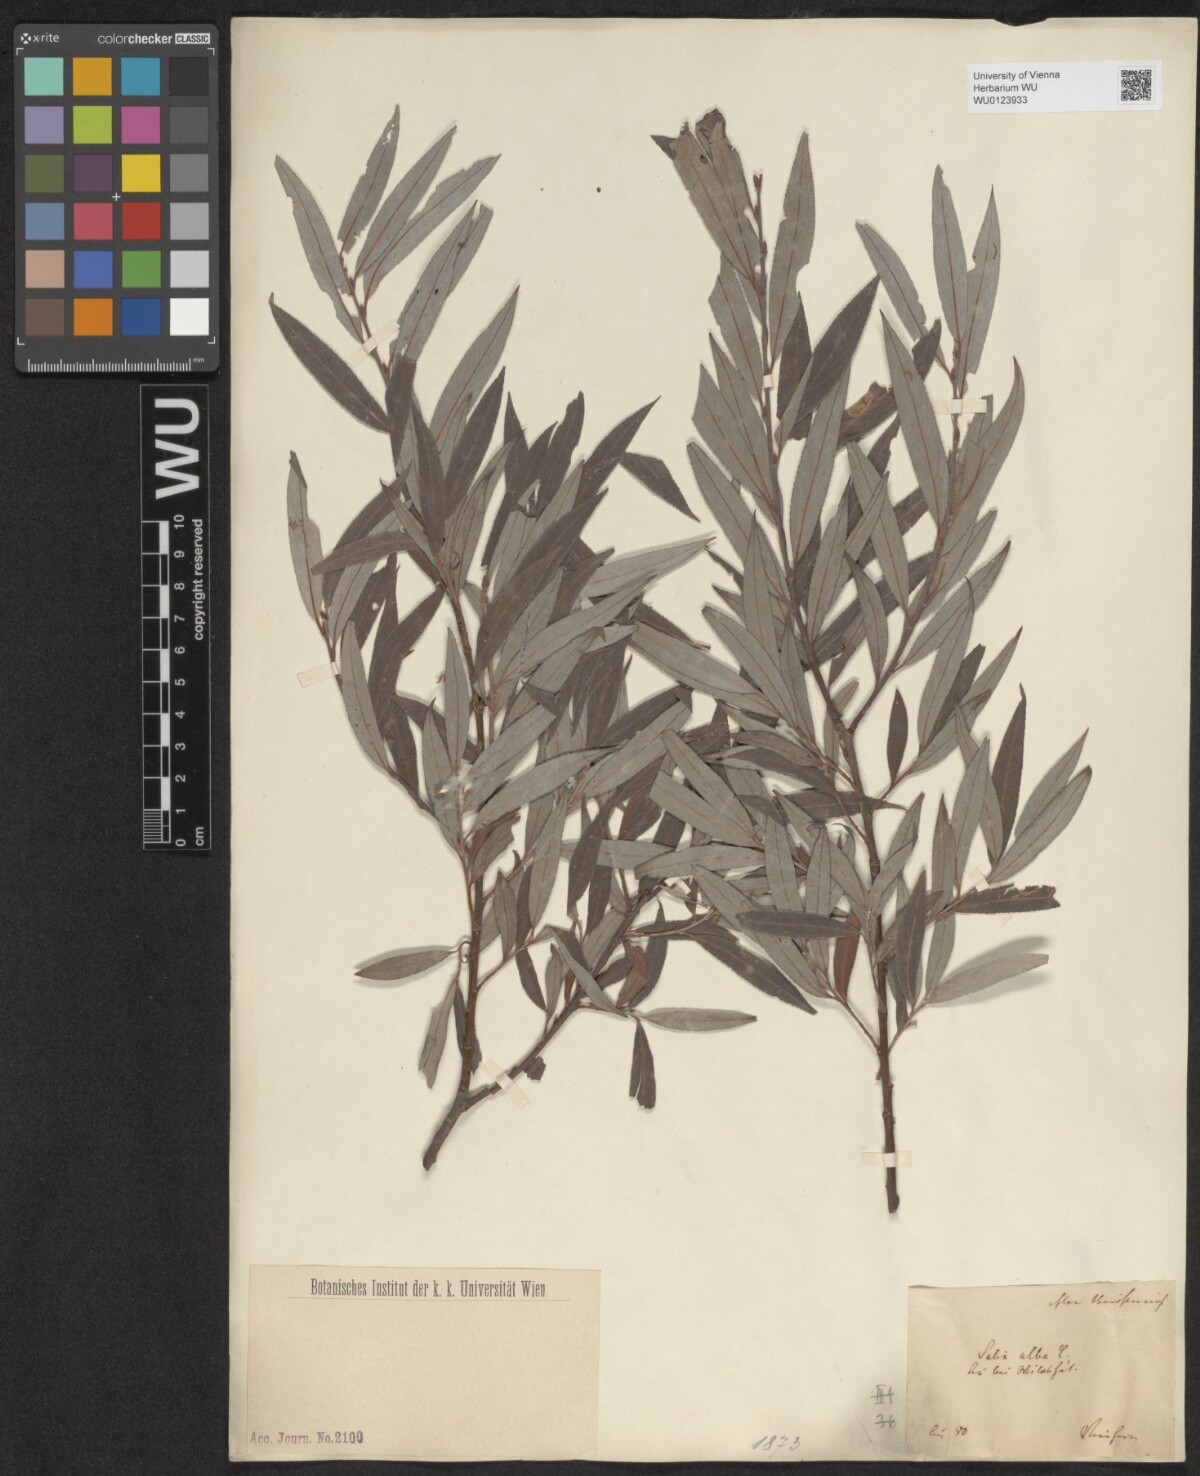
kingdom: Plantae
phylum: Tracheophyta
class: Magnoliopsida
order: Malpighiales
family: Salicaceae
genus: Salix
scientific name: Salix alba
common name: White willow
